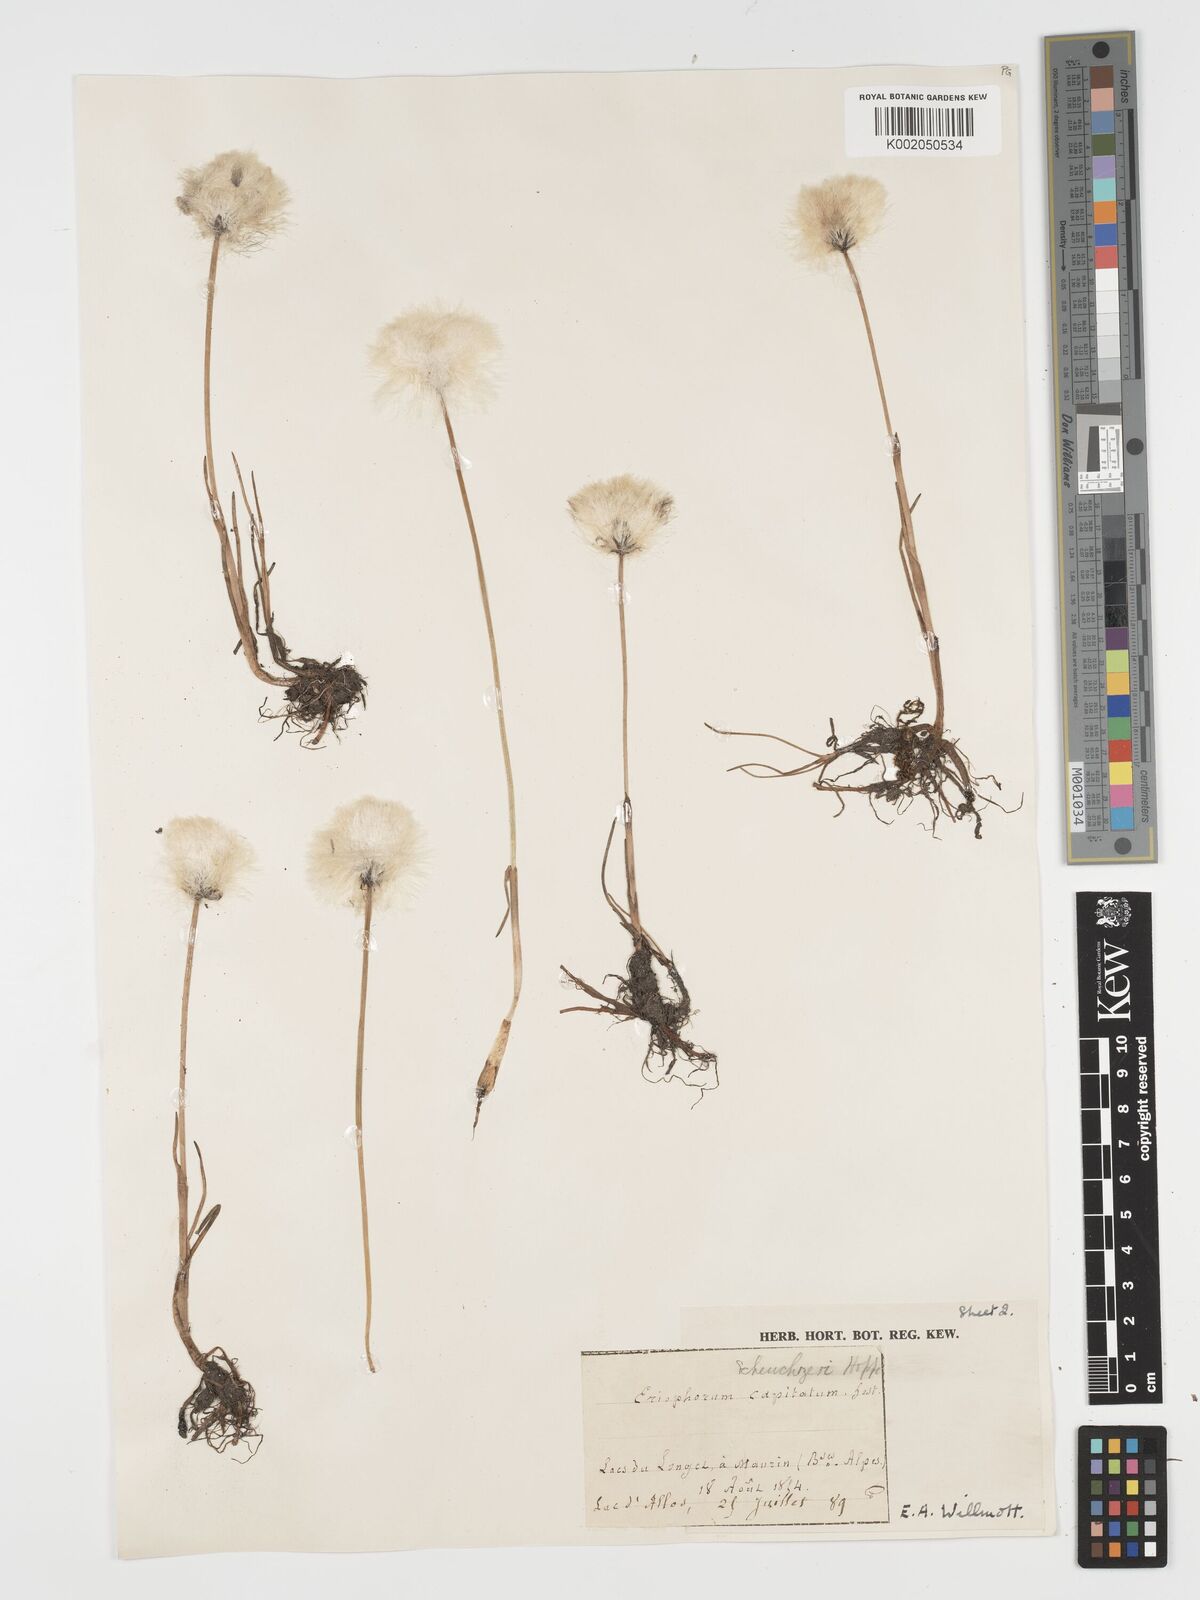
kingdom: Plantae
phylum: Tracheophyta
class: Liliopsida
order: Poales
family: Cyperaceae
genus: Eriophorum
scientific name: Eriophorum scheuchzeri
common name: Scheuchzer's cottongrass
